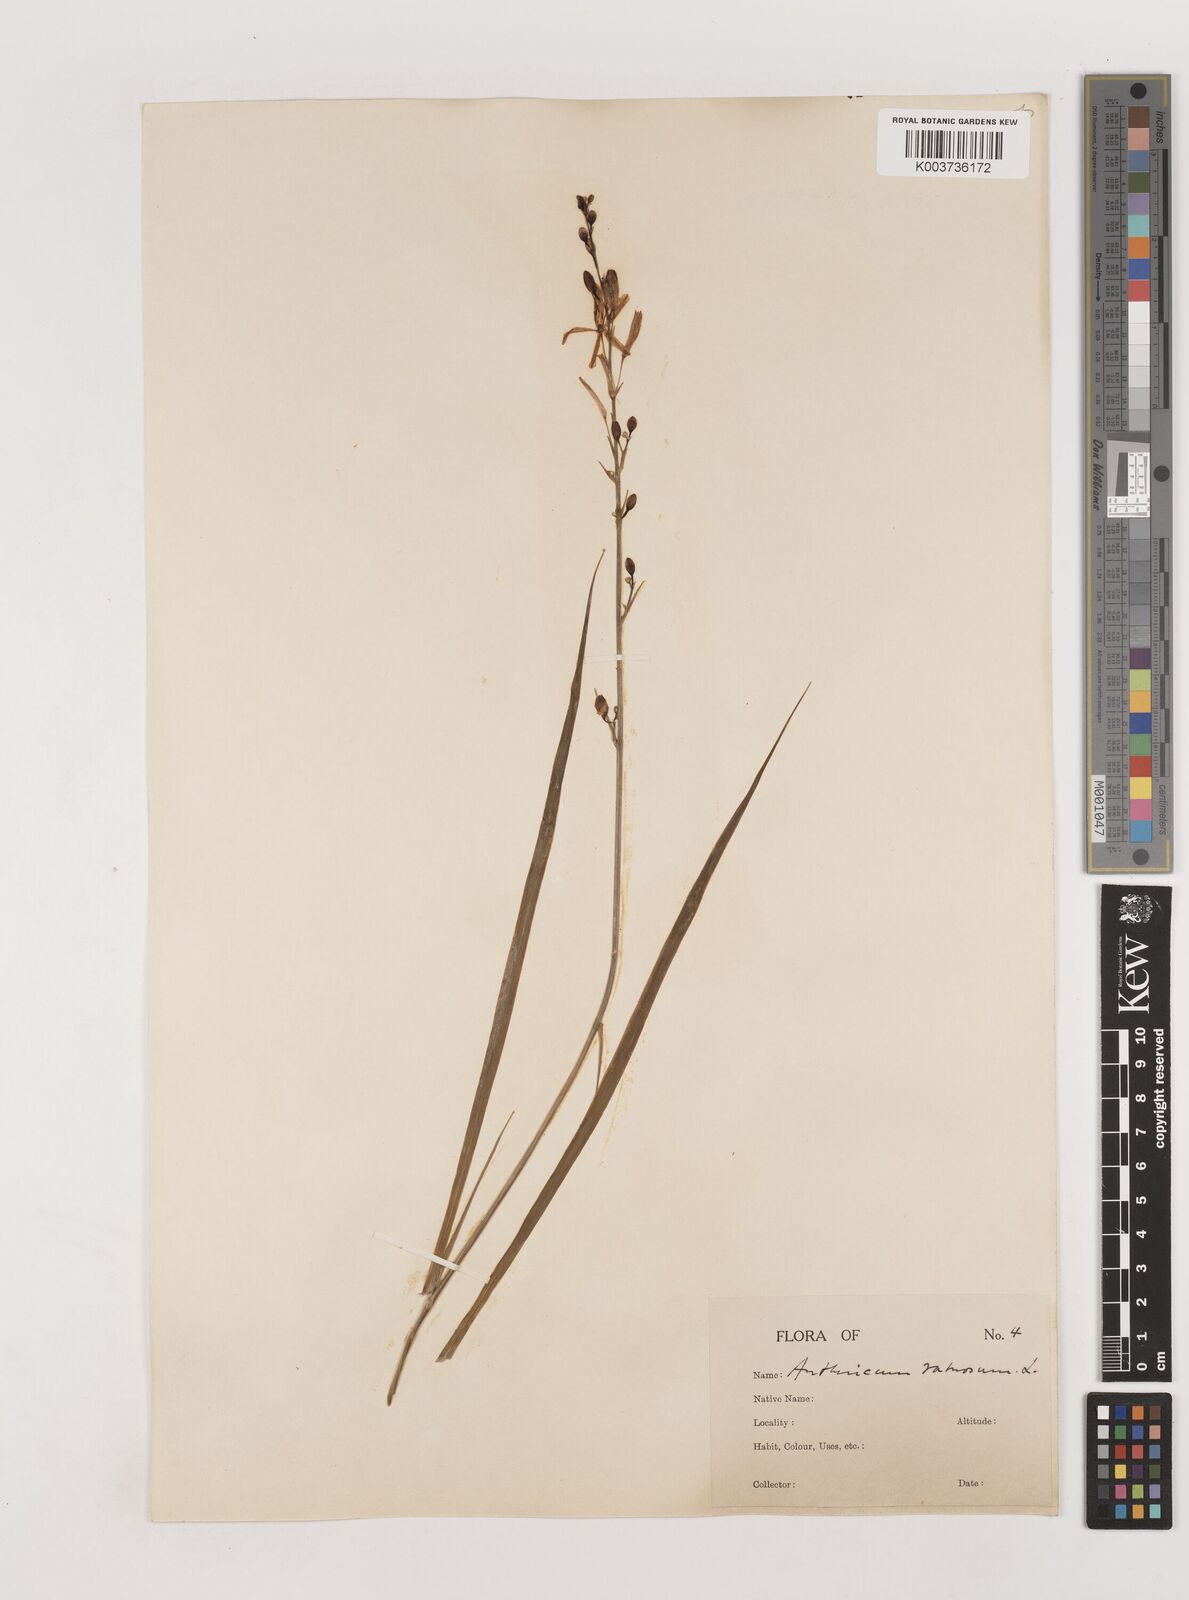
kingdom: Plantae
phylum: Tracheophyta
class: Liliopsida
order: Asparagales
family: Asparagaceae
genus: Anthericum
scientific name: Anthericum ramosum
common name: Branched st. bernard's-lily
